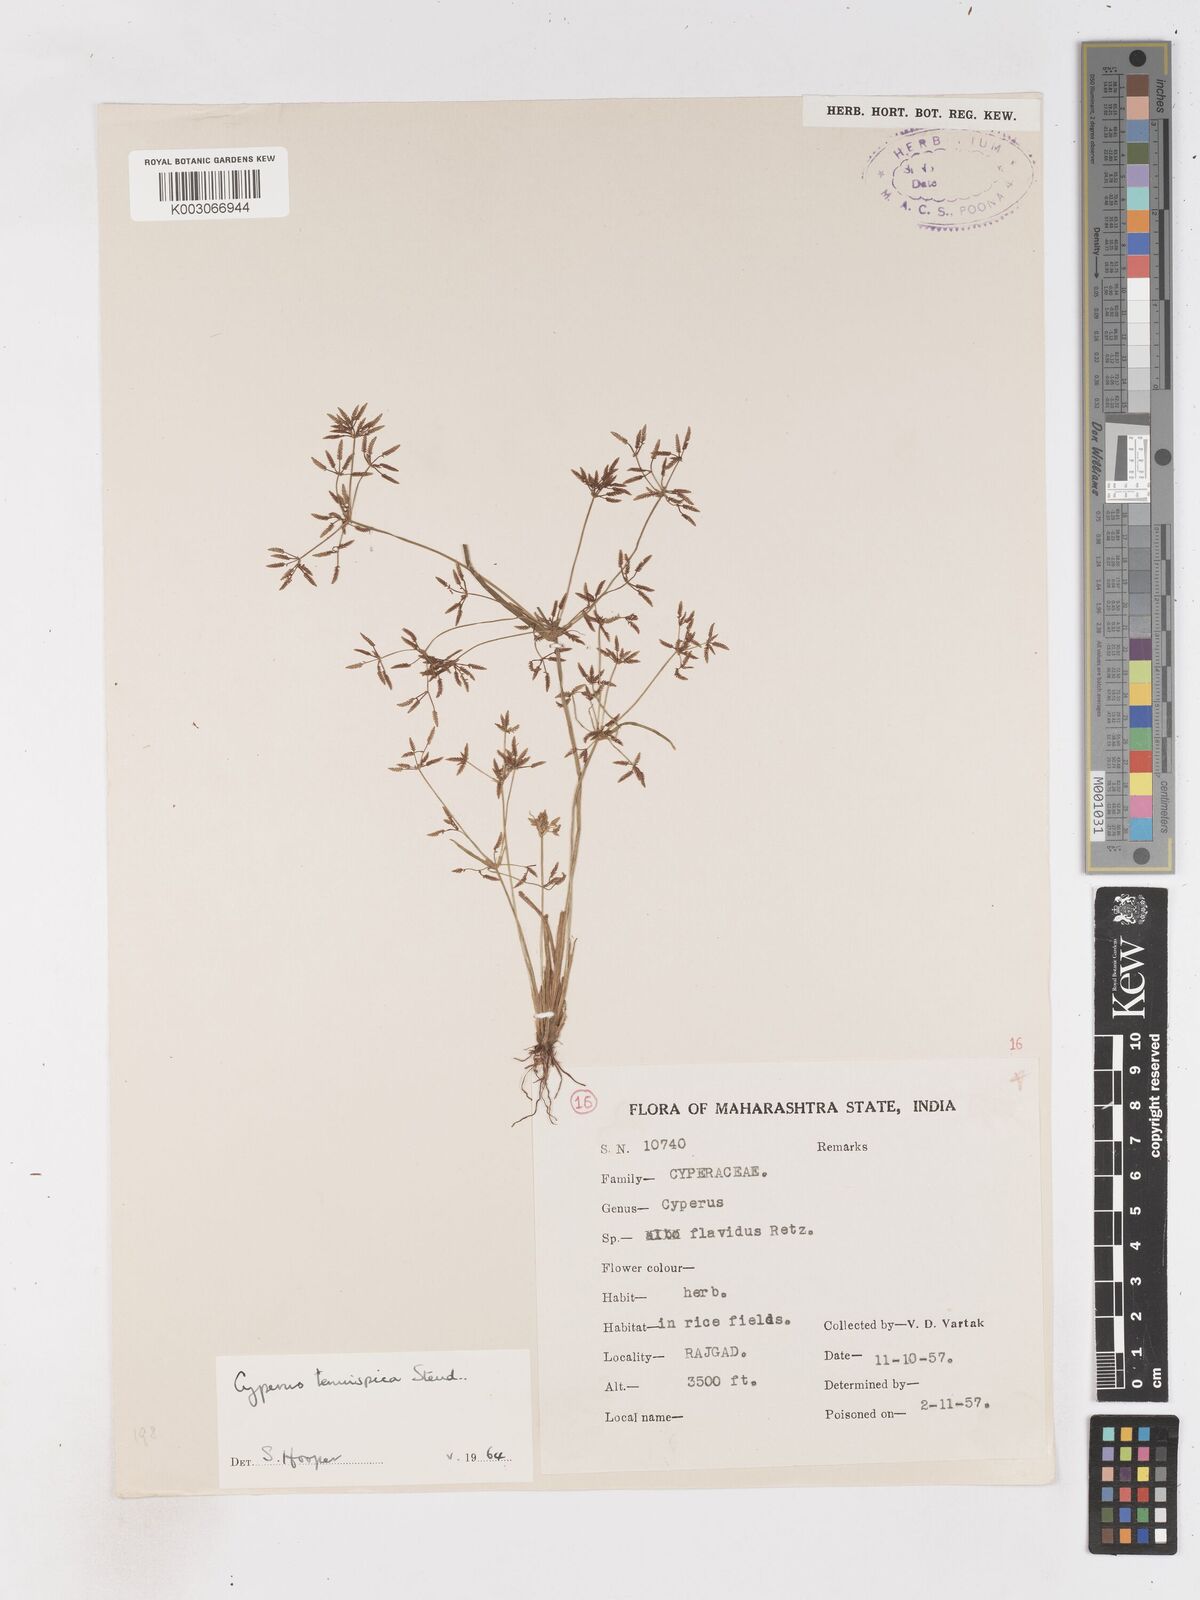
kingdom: Plantae
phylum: Tracheophyta
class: Liliopsida
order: Poales
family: Cyperaceae
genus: Cyperus
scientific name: Cyperus tenuispica
